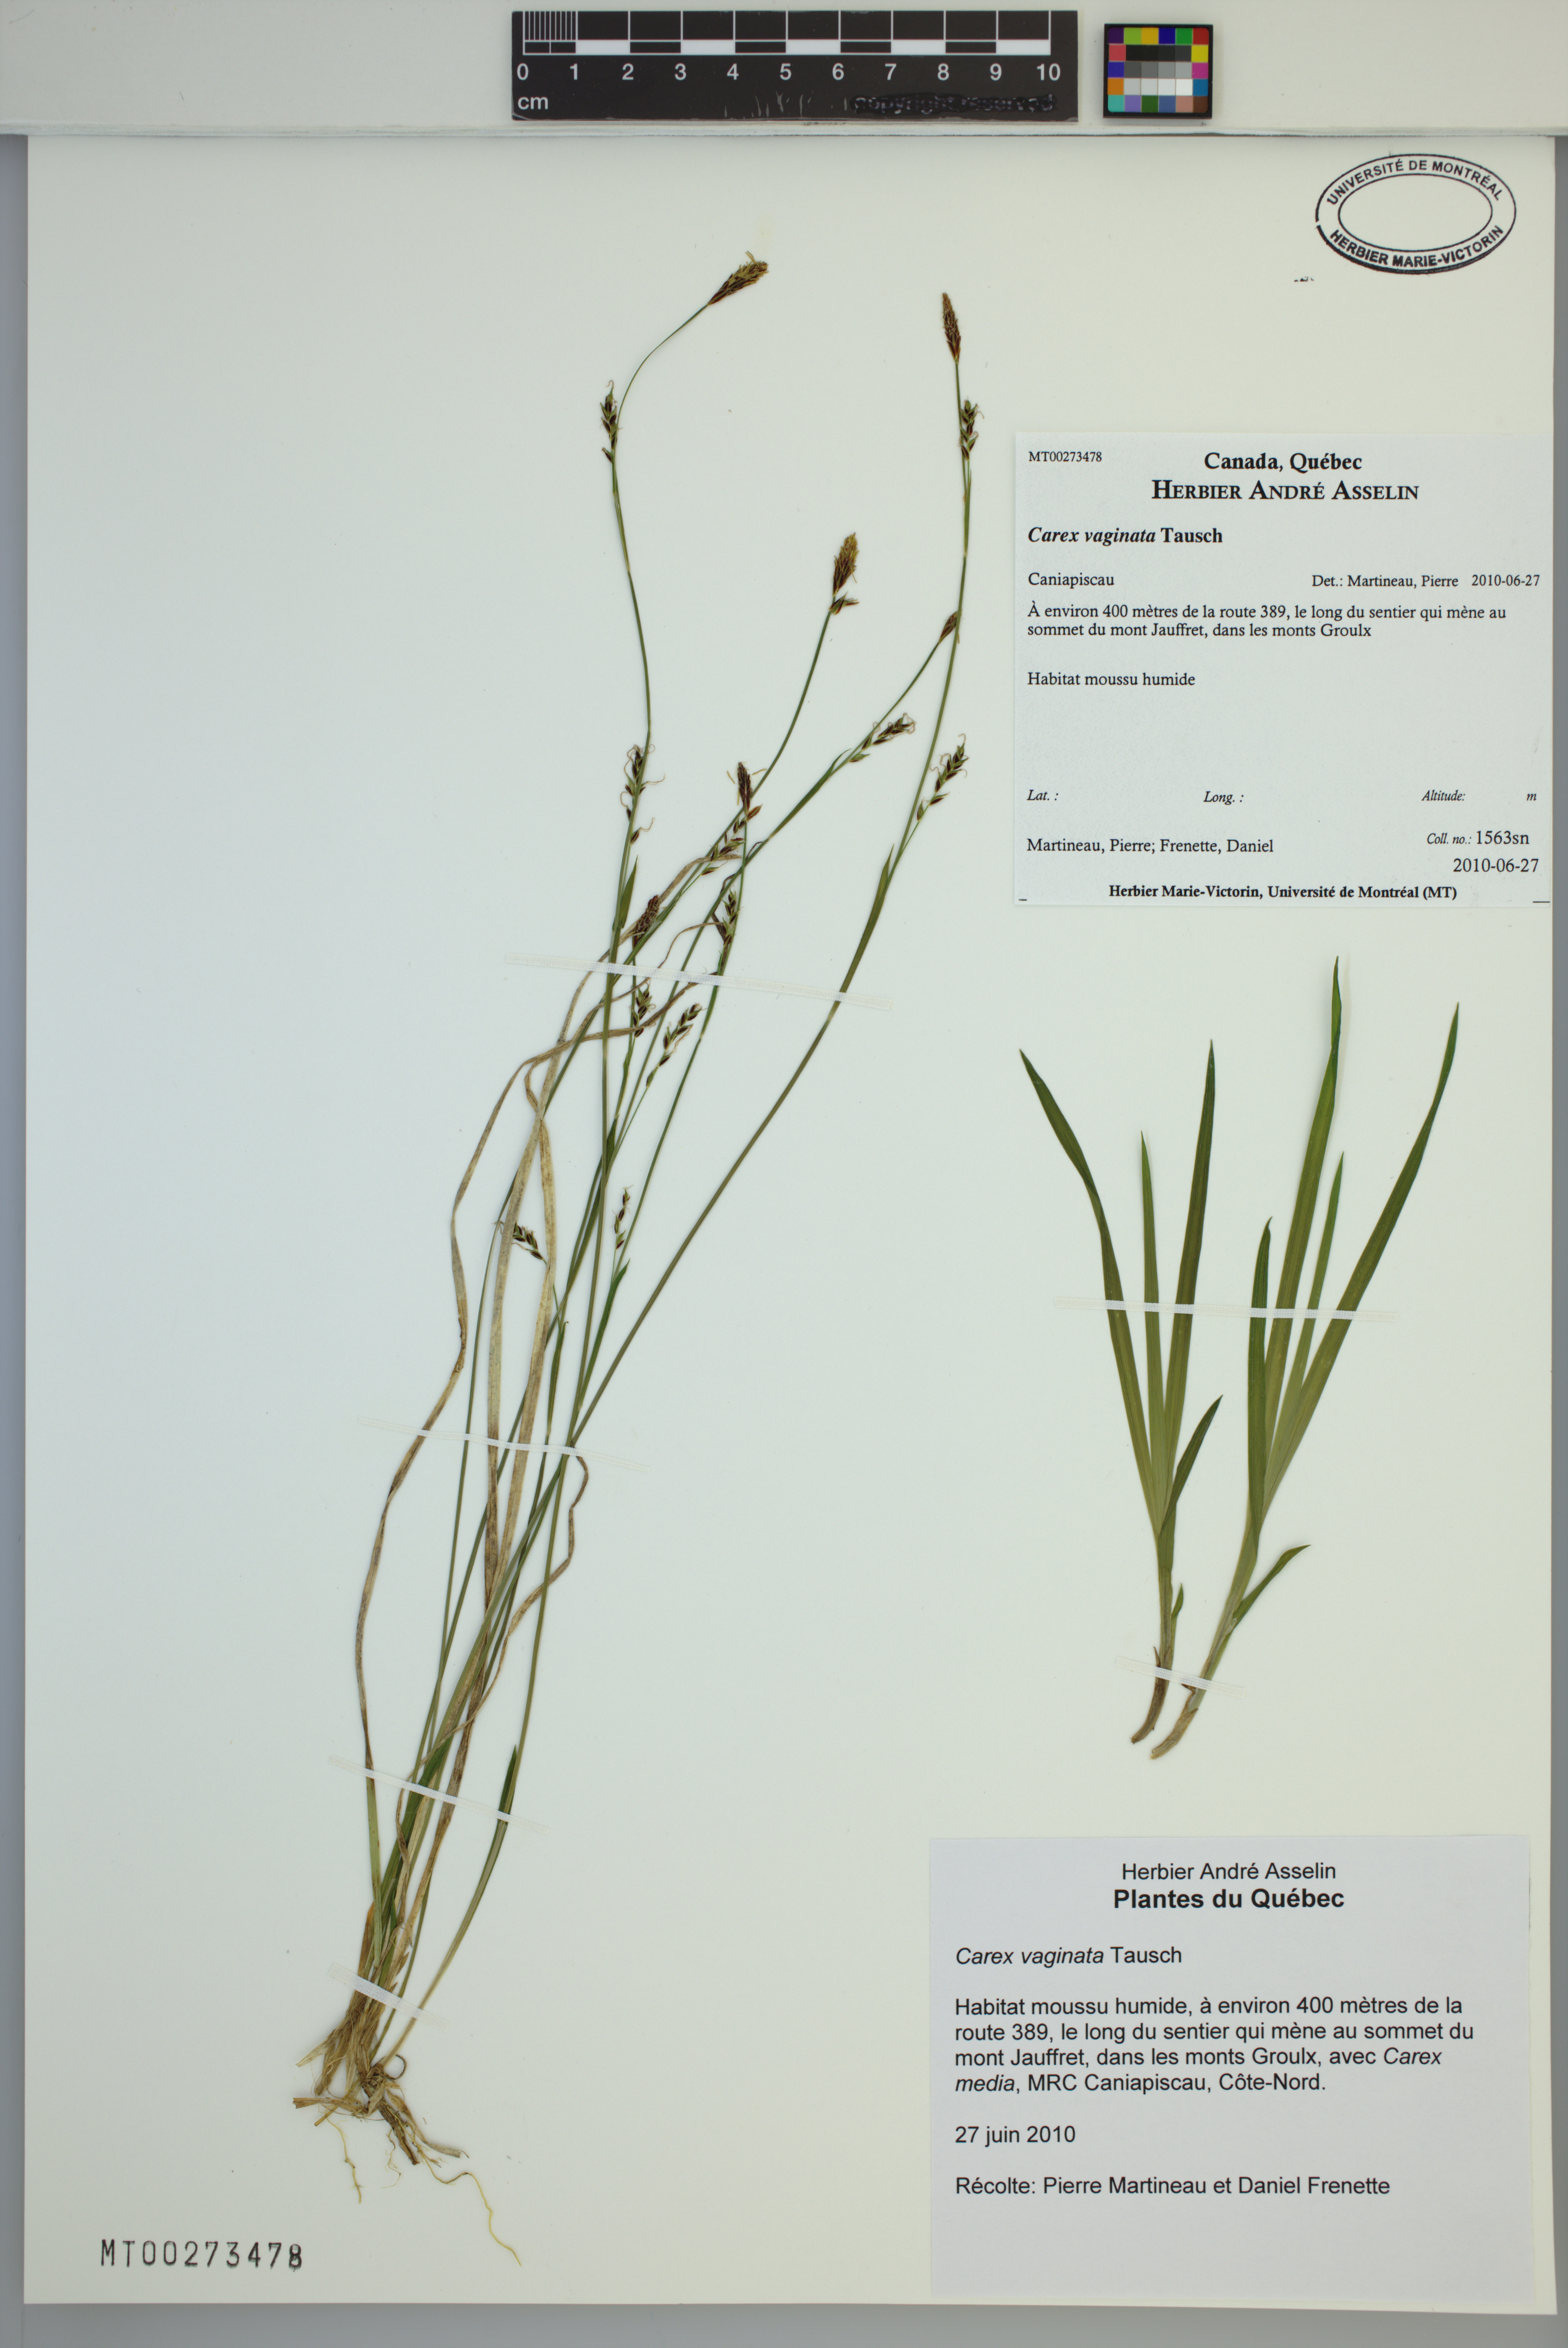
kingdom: Plantae
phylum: Tracheophyta
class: Liliopsida
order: Poales
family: Cyperaceae
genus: Carex
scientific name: Carex vaginata
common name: Sheathed sedge
